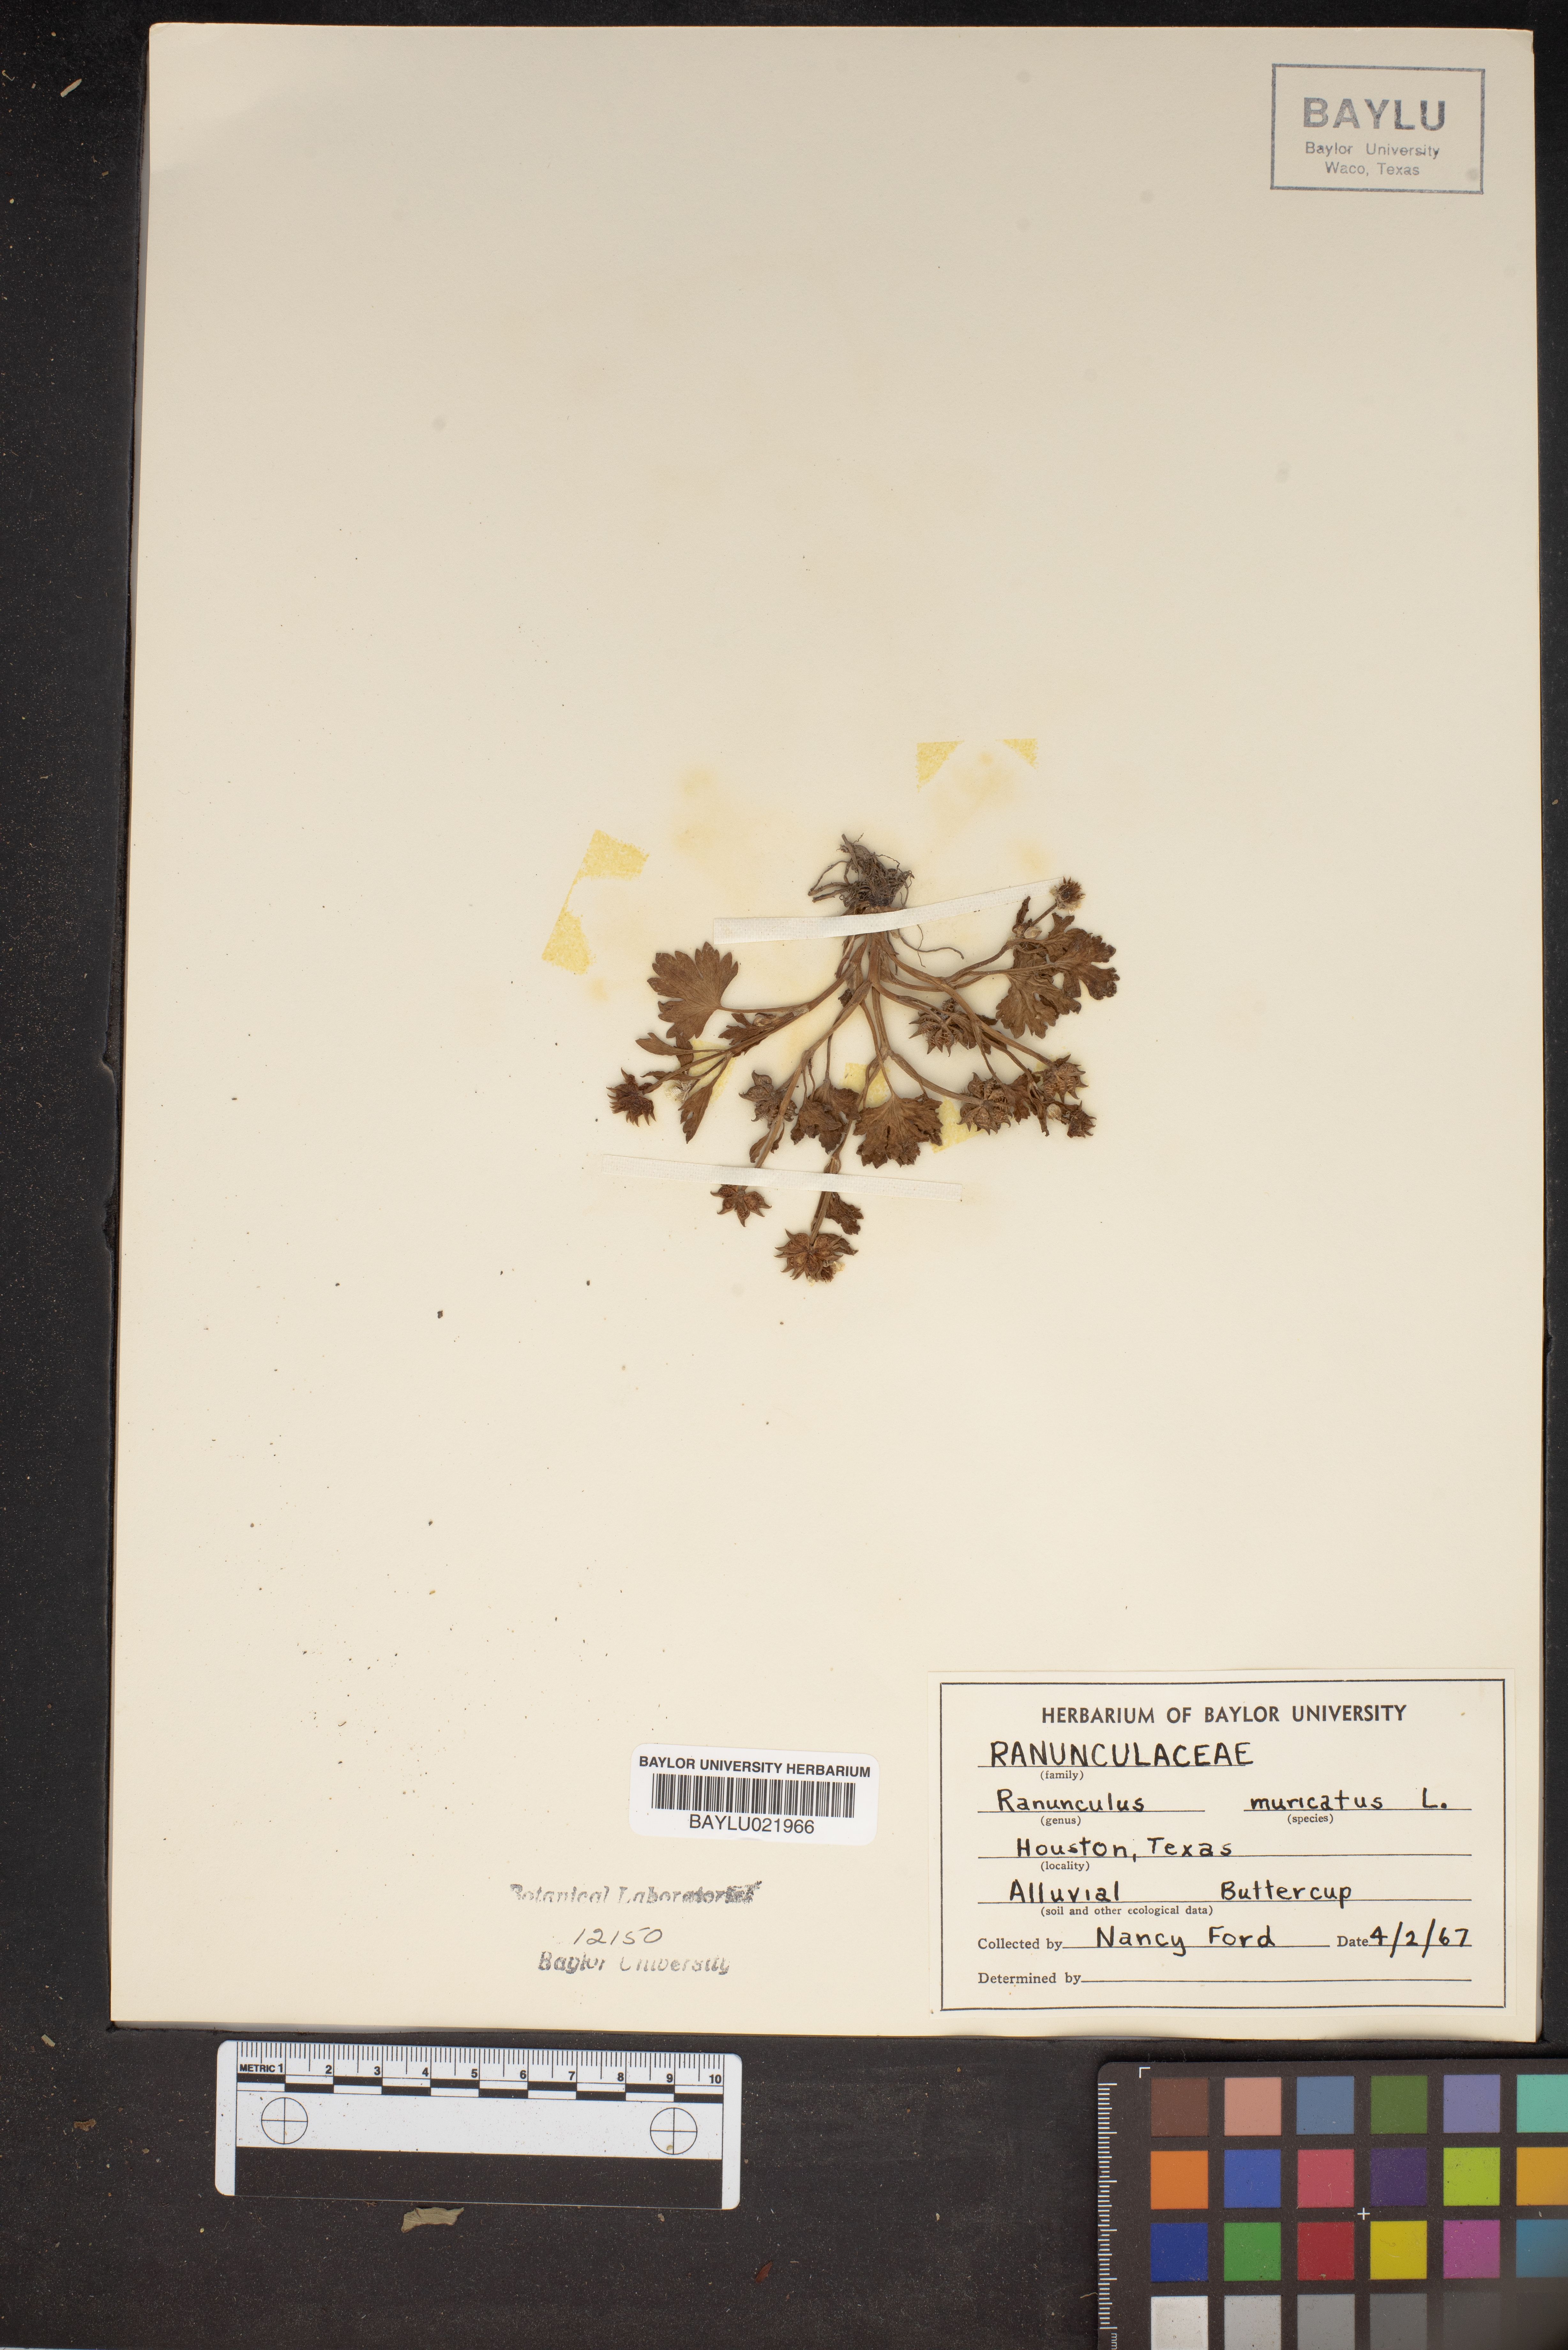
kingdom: Plantae
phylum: Tracheophyta
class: Magnoliopsida
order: Ranunculales
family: Ranunculaceae
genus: Ranunculus
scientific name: Ranunculus muricatus
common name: Rough-fruited buttercup
